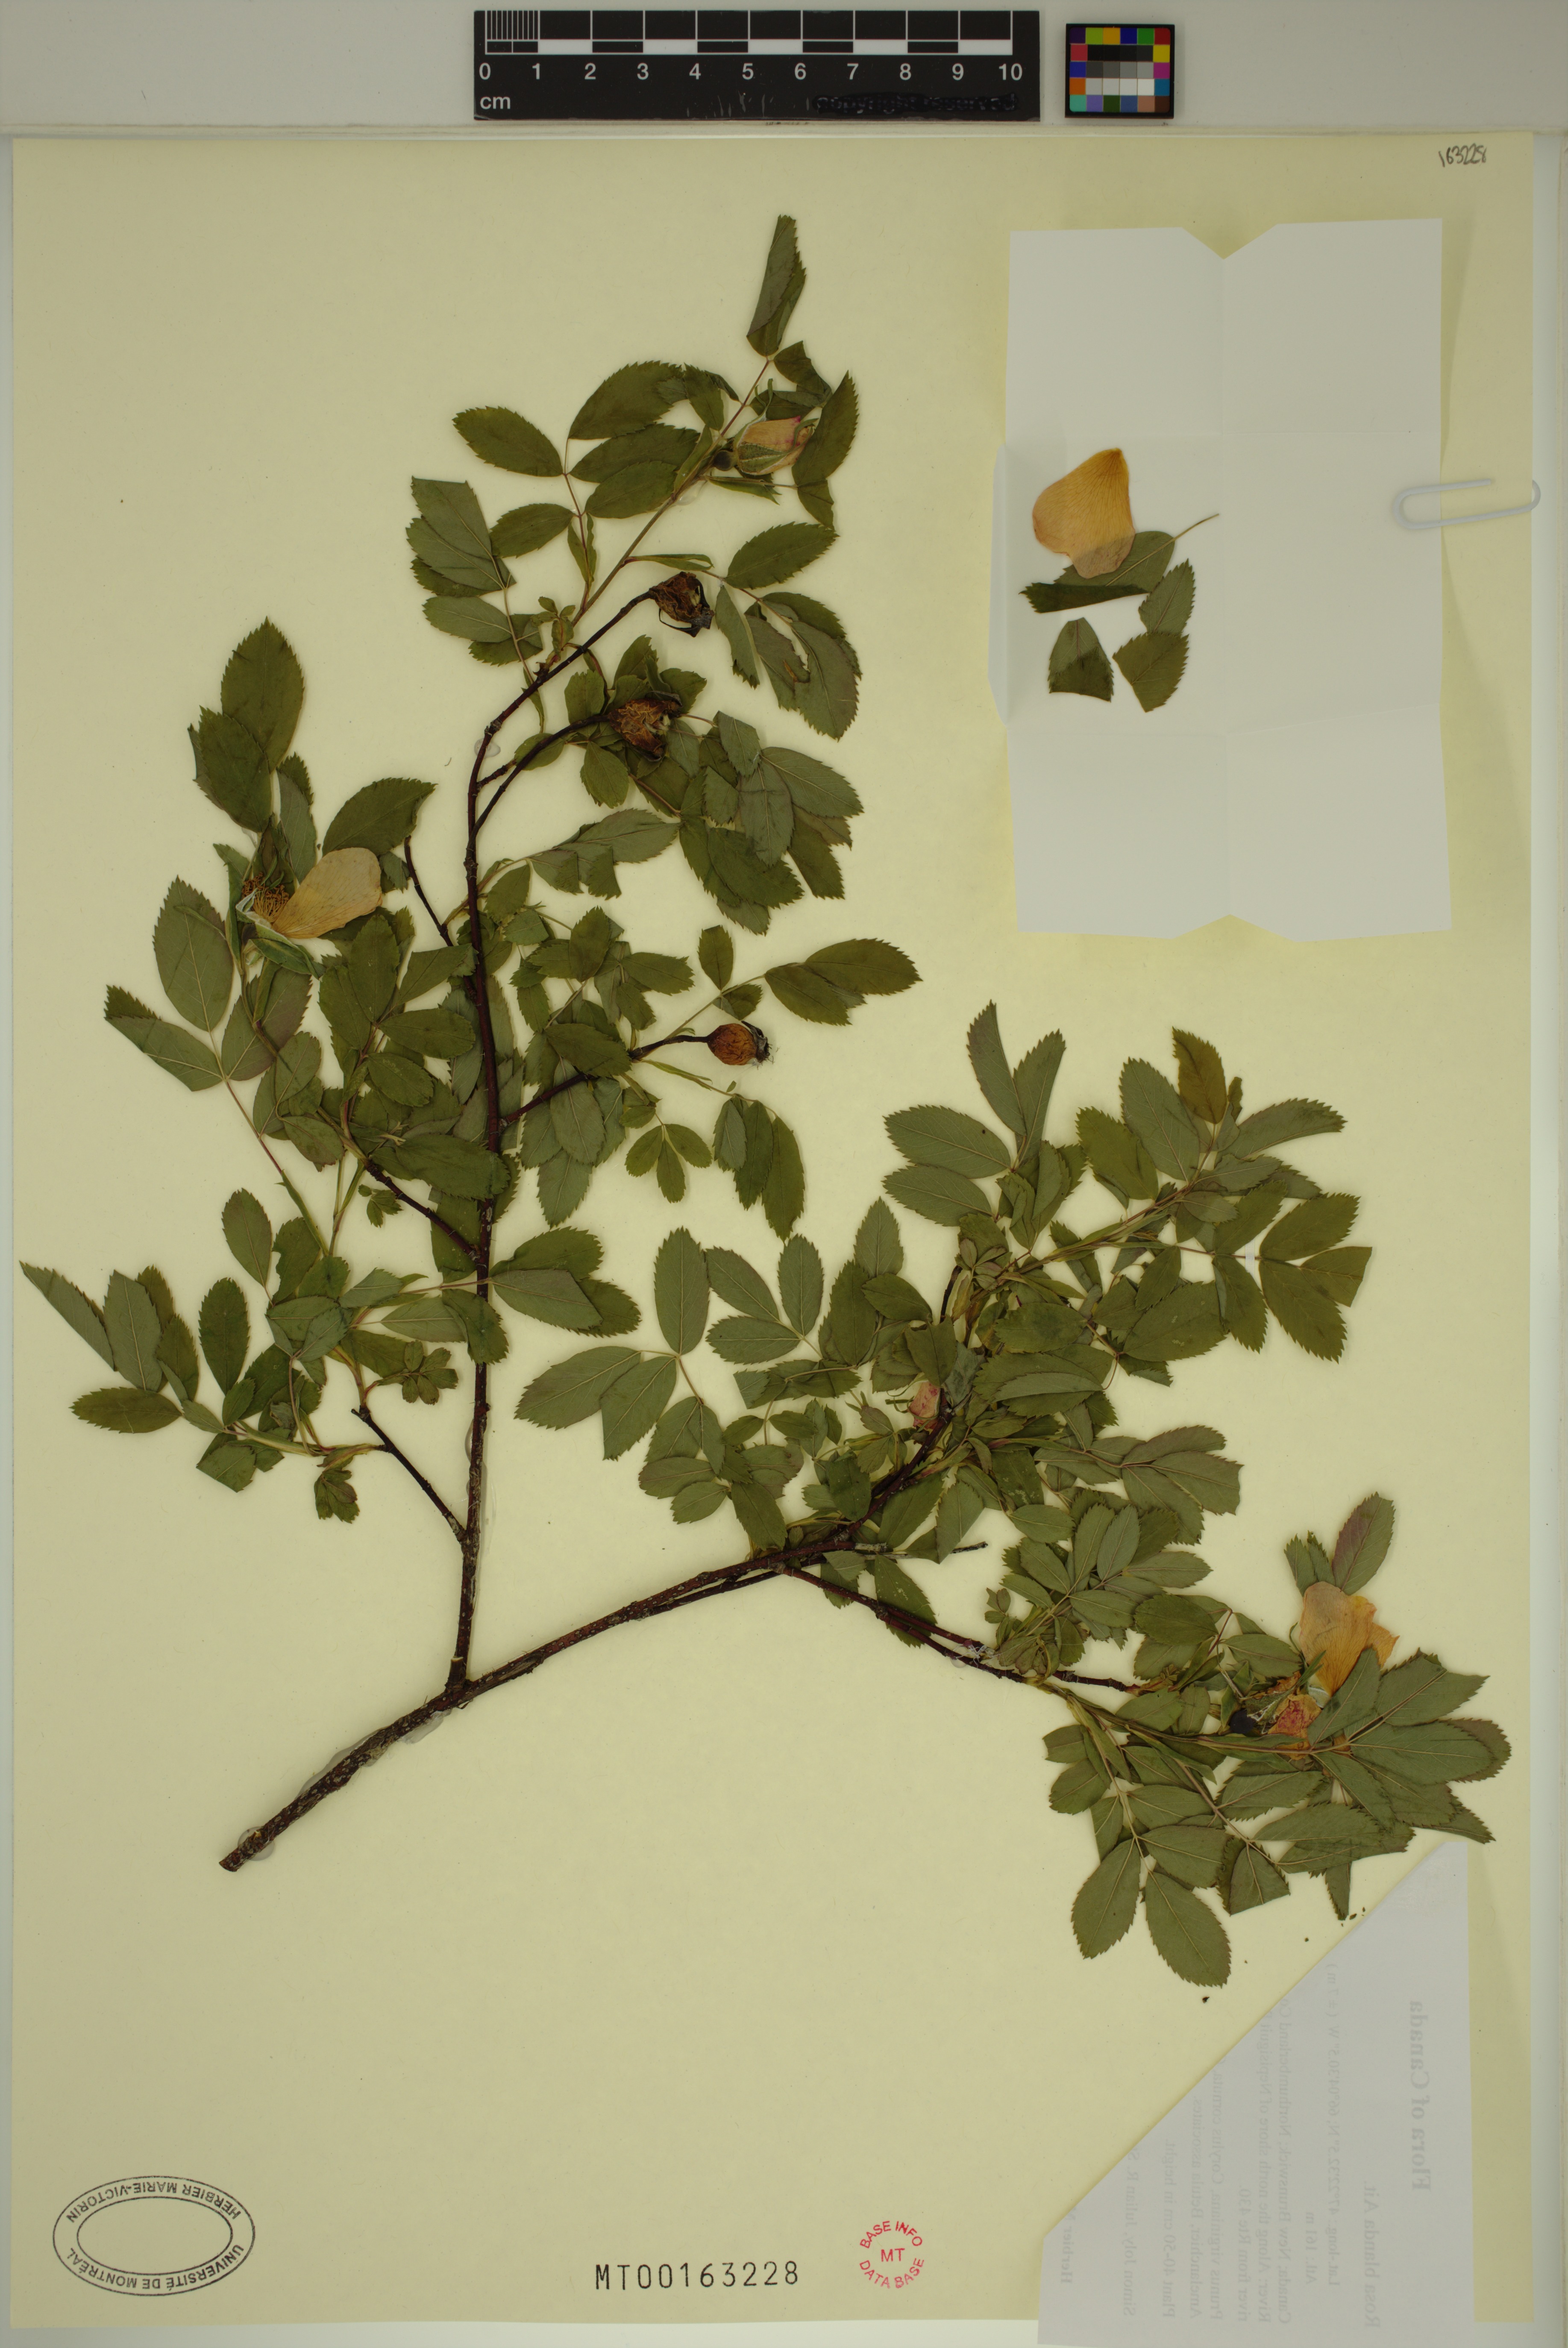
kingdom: Plantae
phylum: Tracheophyta
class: Magnoliopsida
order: Rosales
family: Rosaceae
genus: Rosa
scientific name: Rosa blanda
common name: Smooth rose
